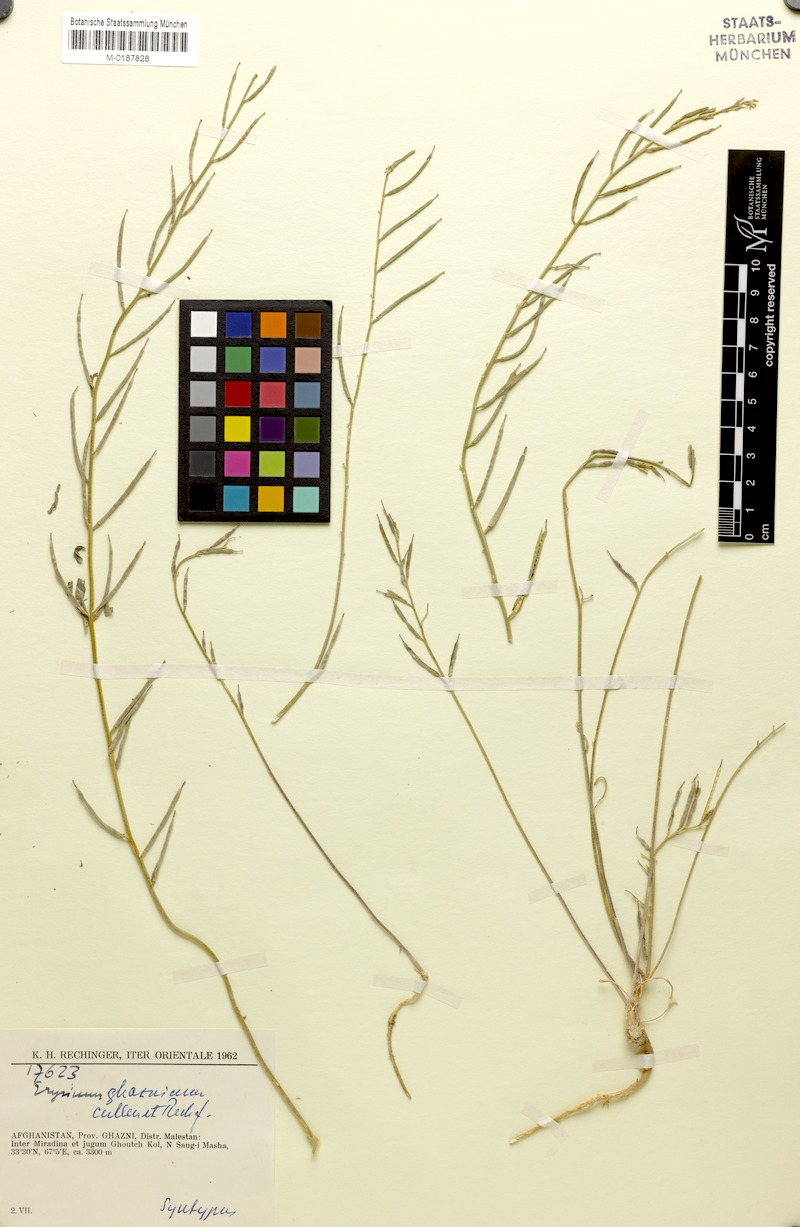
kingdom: Plantae
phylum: Tracheophyta
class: Magnoliopsida
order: Brassicales
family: Brassicaceae
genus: Erysimum
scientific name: Erysimum ghaznicum
